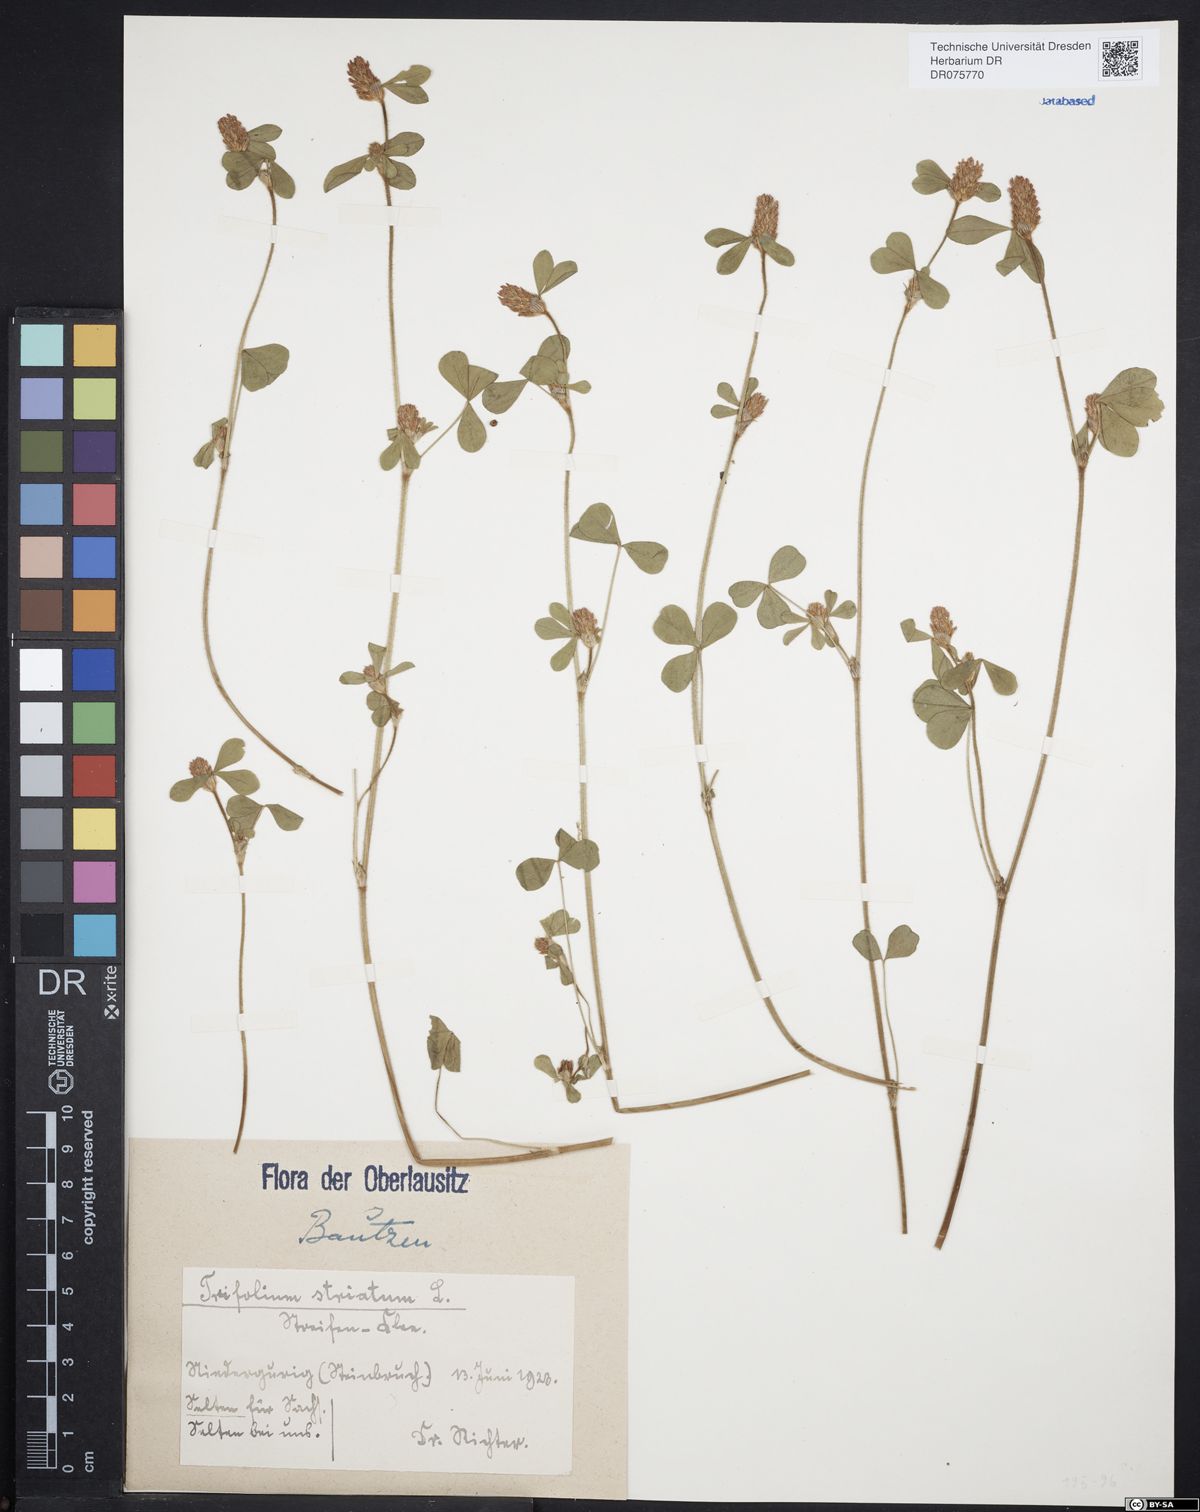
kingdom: Plantae
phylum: Tracheophyta
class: Magnoliopsida
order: Fabales
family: Fabaceae
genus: Trifolium
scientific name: Trifolium striatum
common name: Knotted clover
